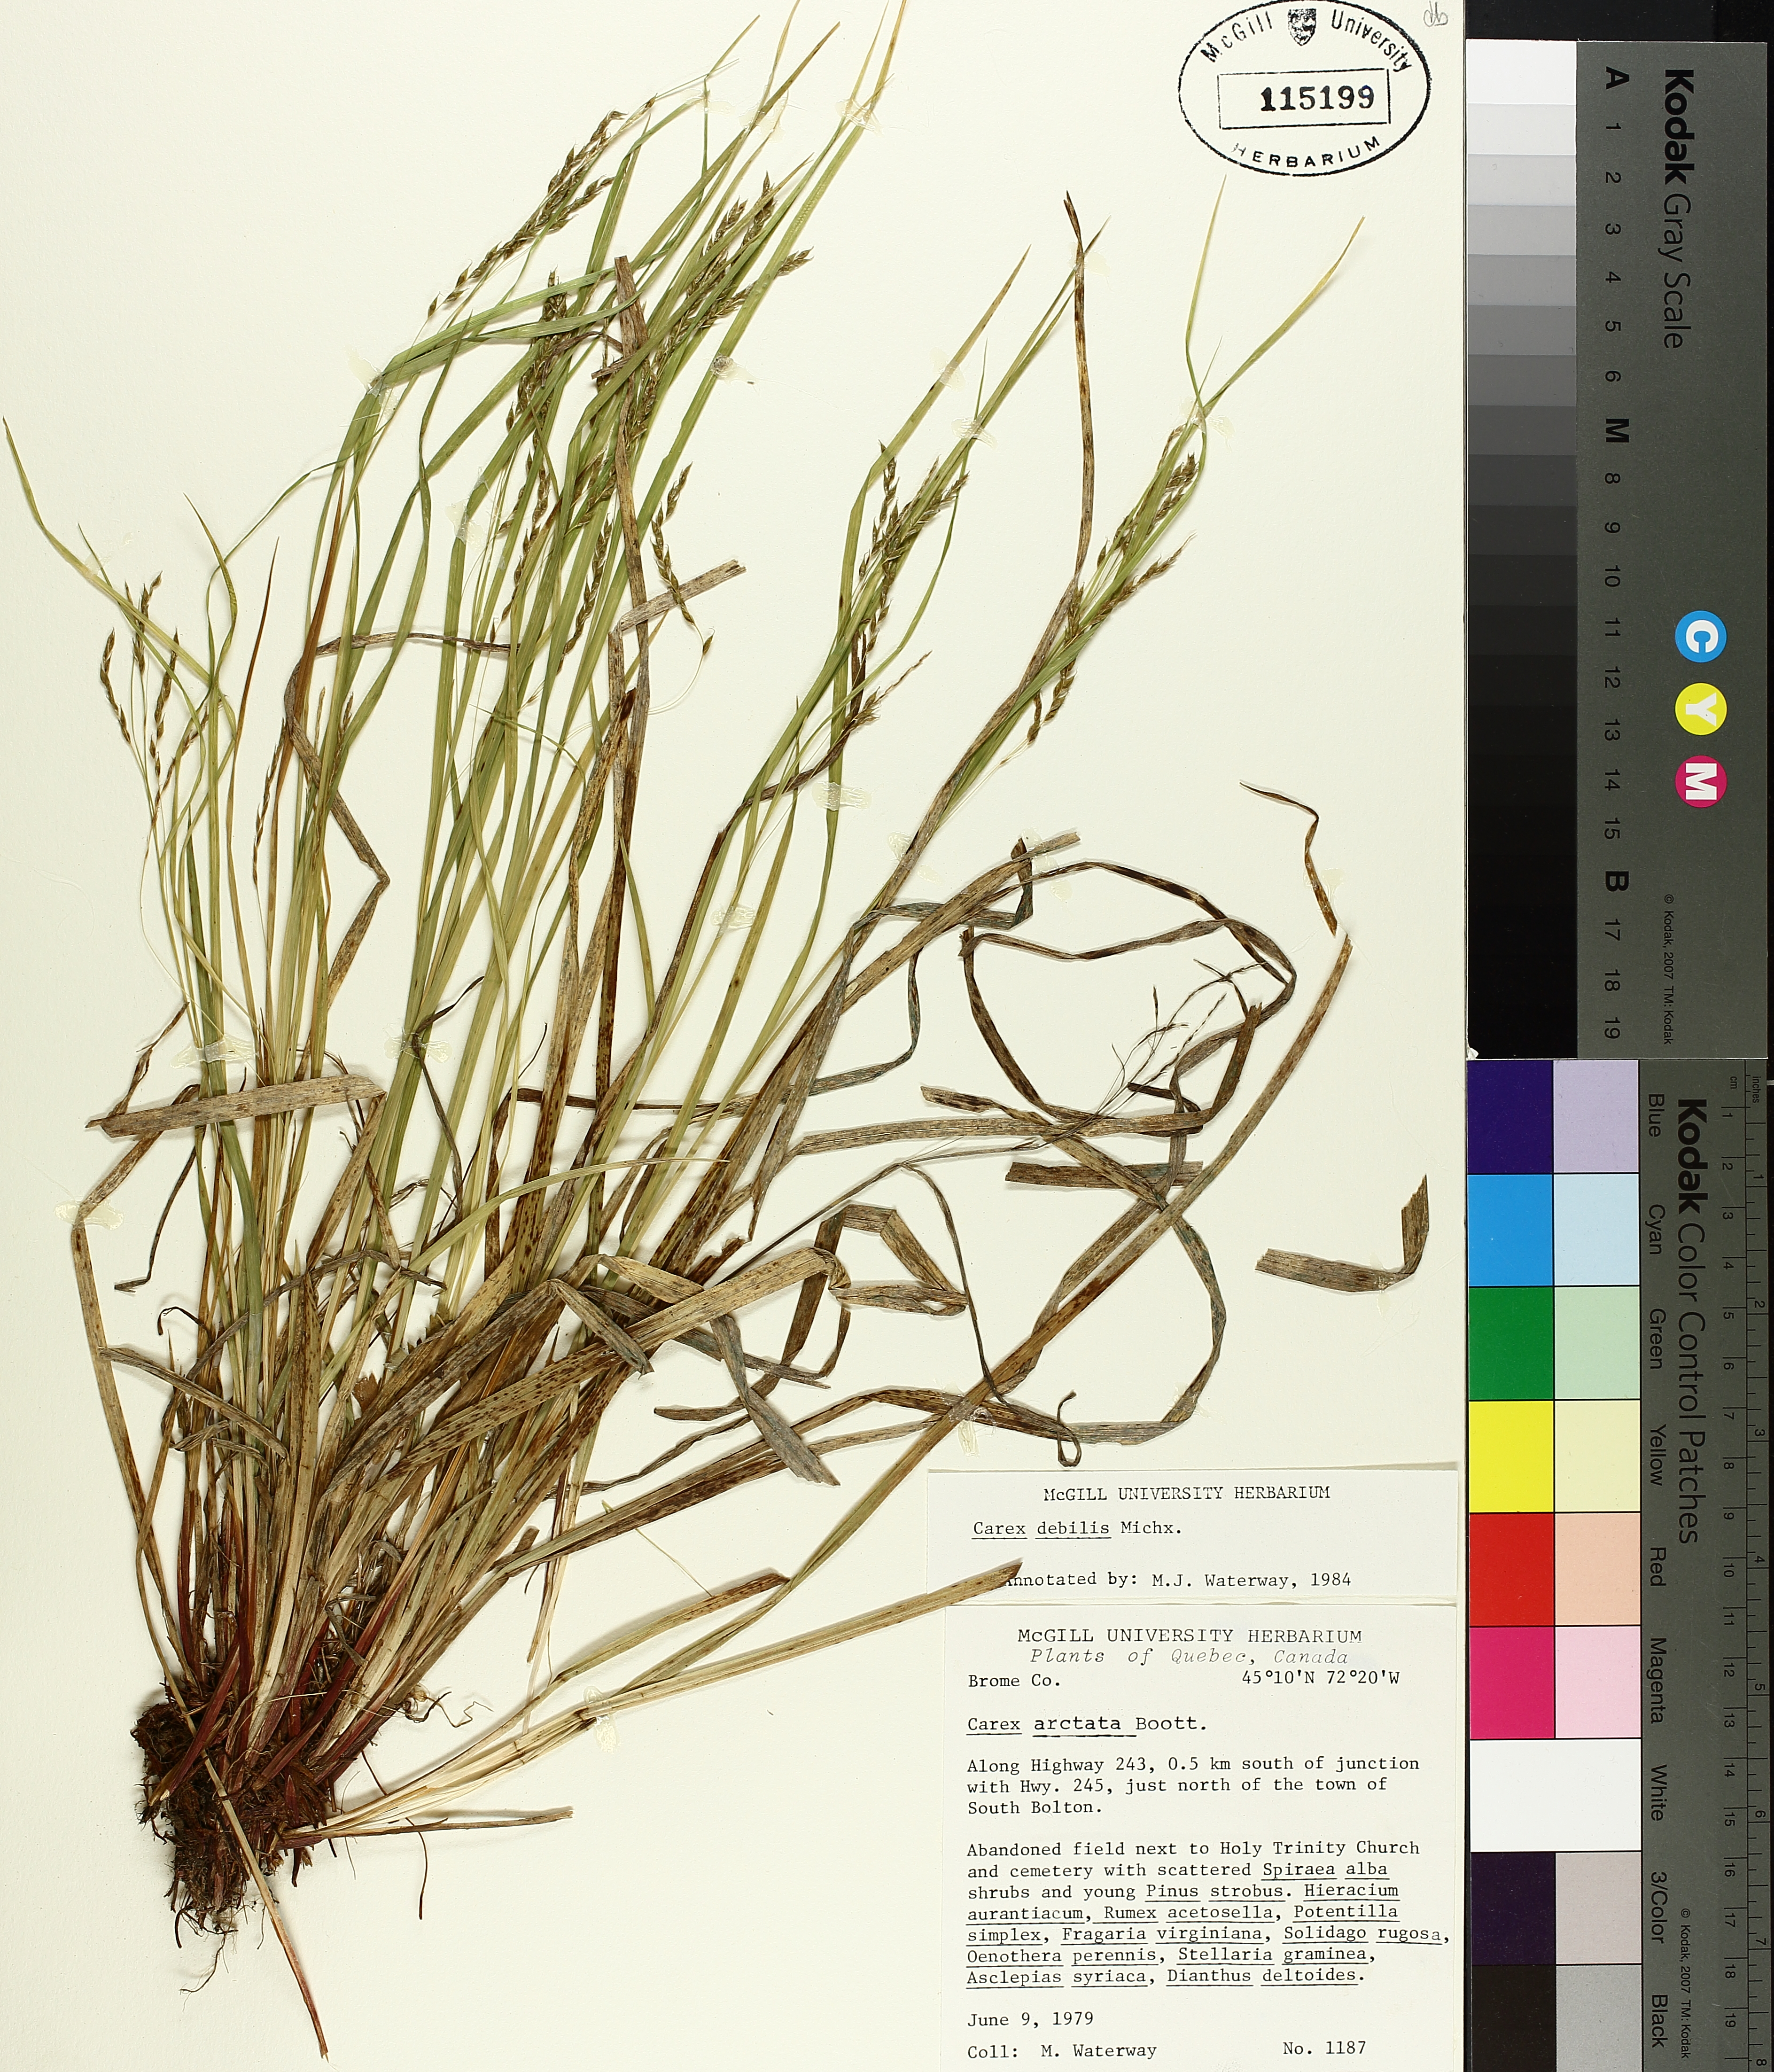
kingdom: Plantae
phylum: Tracheophyta
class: Liliopsida
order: Poales
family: Cyperaceae
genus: Carex
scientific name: Carex debilis
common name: White-edge sedge
